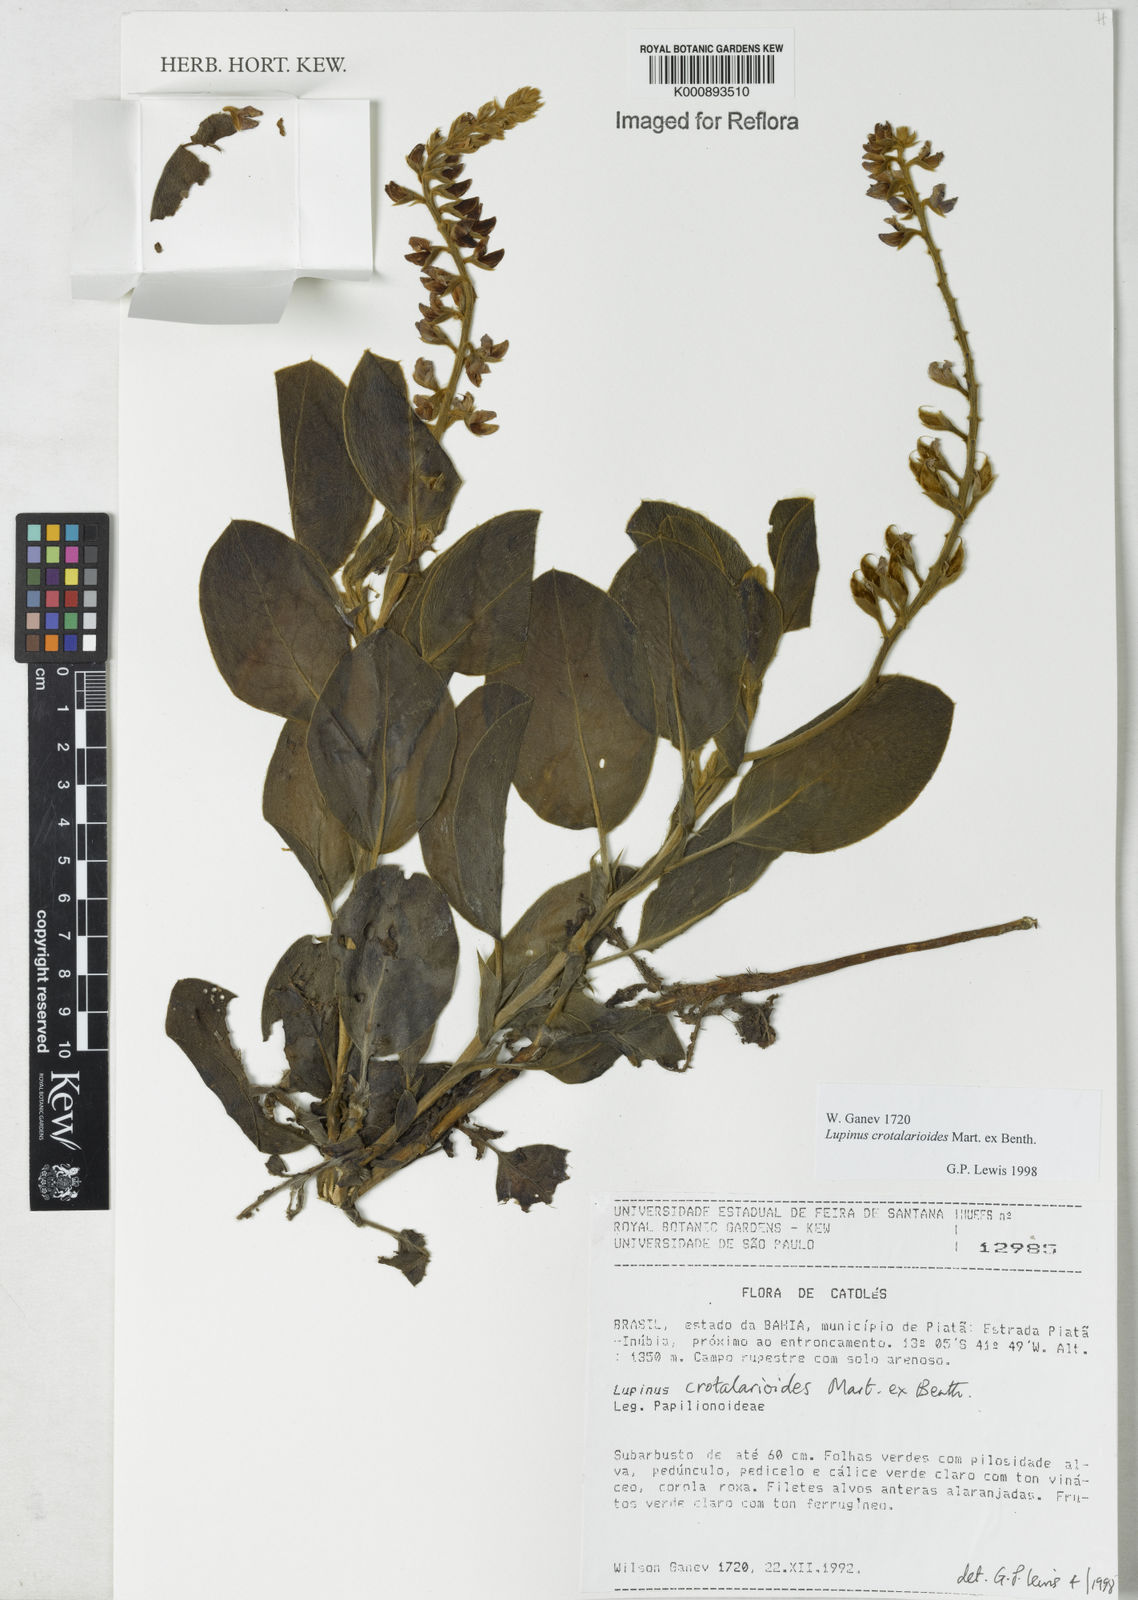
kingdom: Plantae
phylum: Tracheophyta
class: Magnoliopsida
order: Fabales
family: Fabaceae
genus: Lupinus
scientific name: Lupinus crotalarioides
